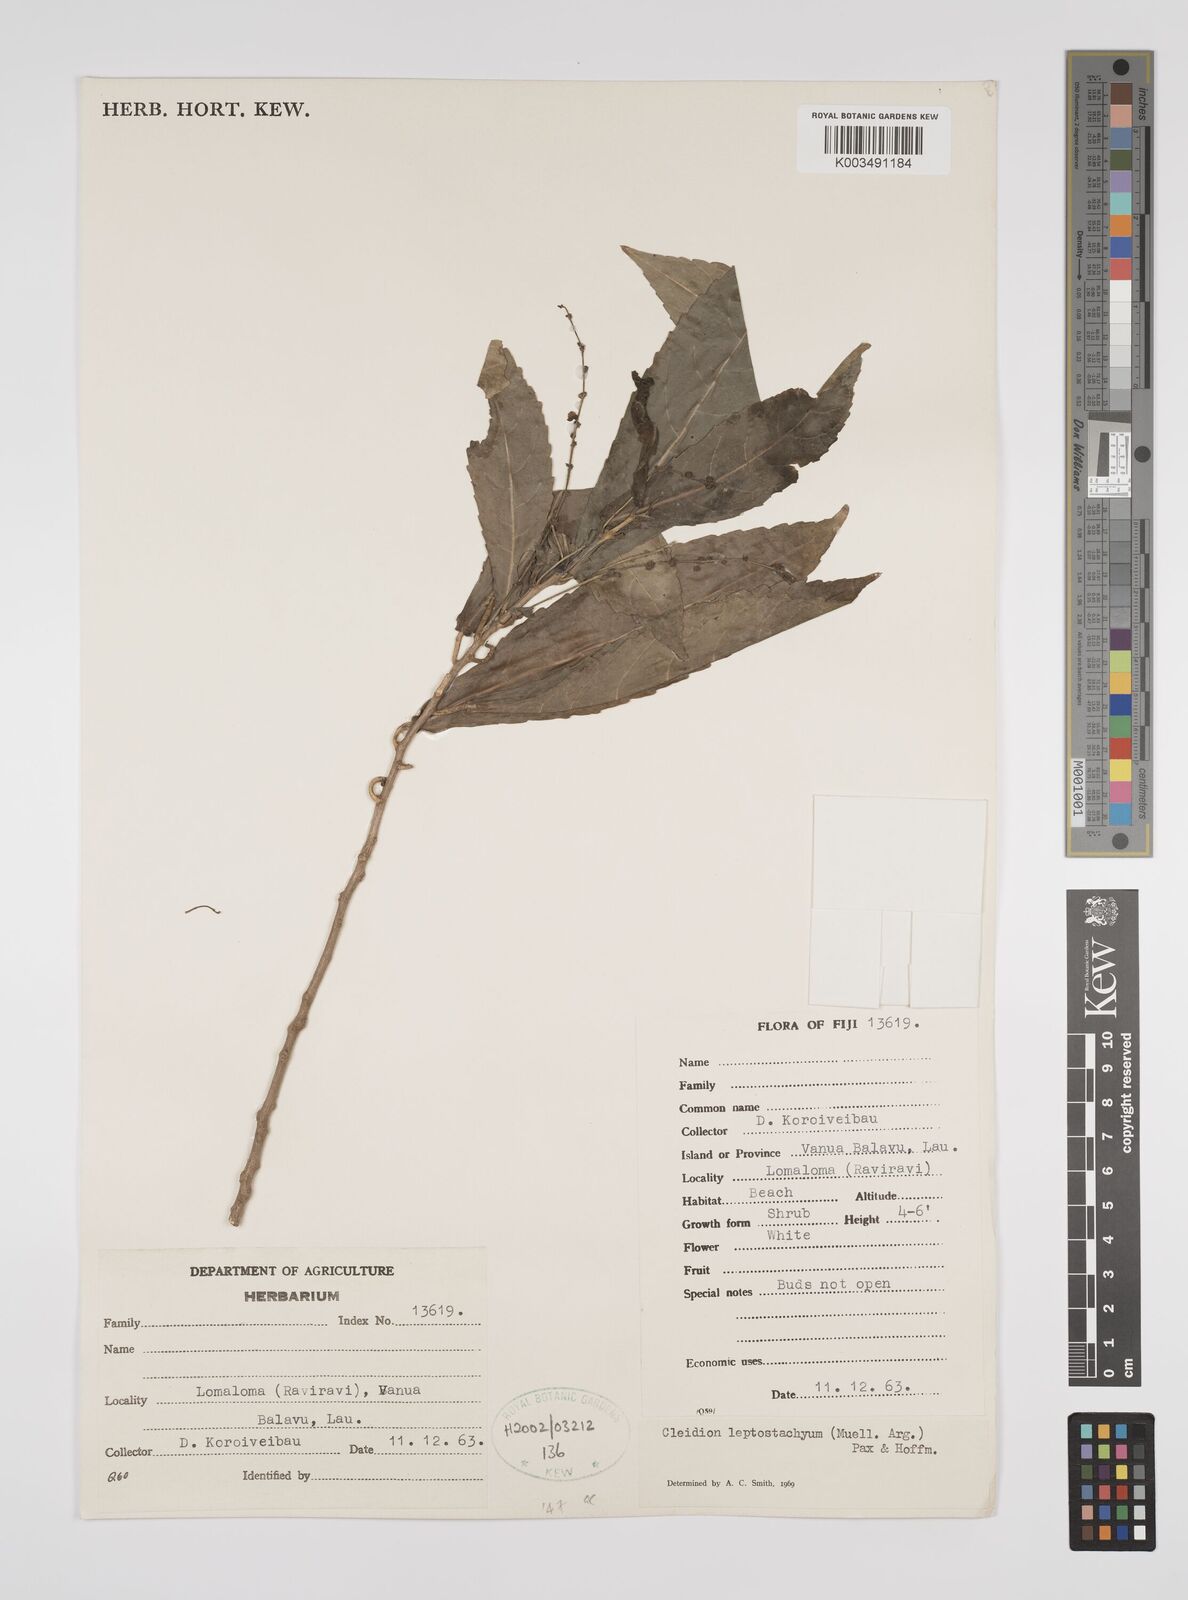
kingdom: Plantae
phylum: Tracheophyta
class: Magnoliopsida
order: Malpighiales
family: Euphorbiaceae
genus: Cleidion
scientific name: Cleidion leptostachyum
